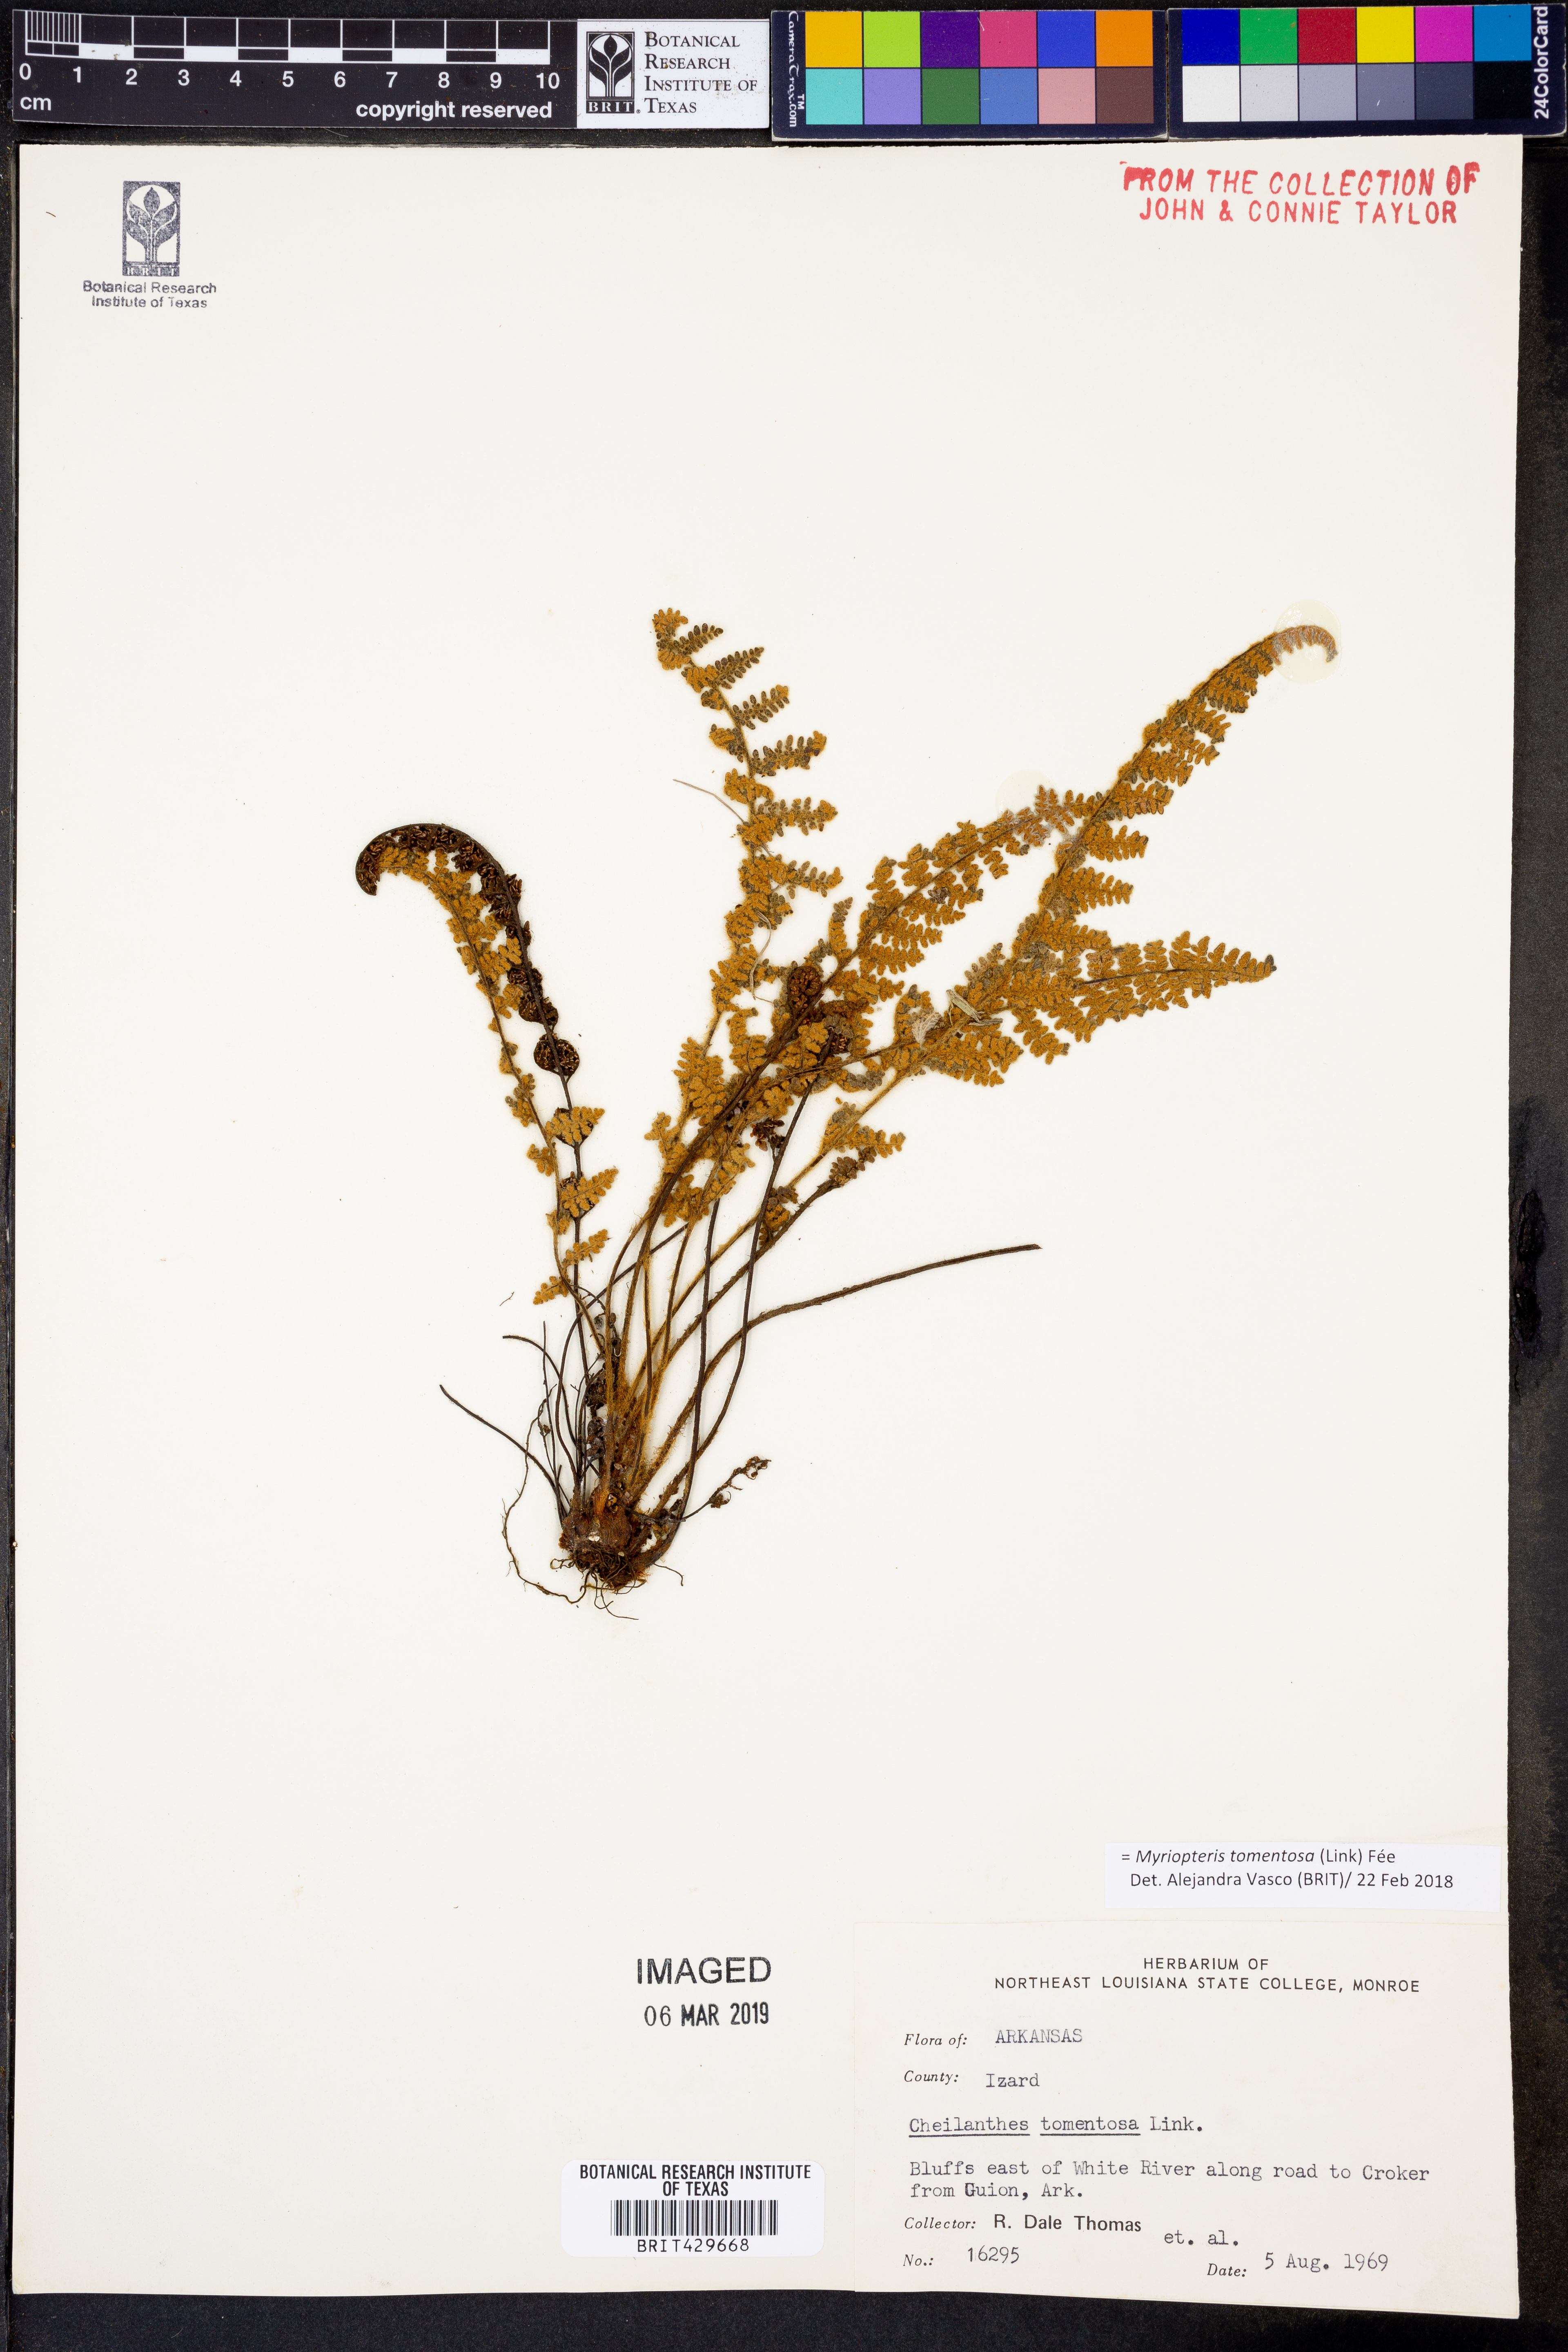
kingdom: Plantae
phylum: Tracheophyta
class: Polypodiopsida
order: Polypodiales
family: Pteridaceae
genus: Myriopteris
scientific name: Myriopteris tomentosa
